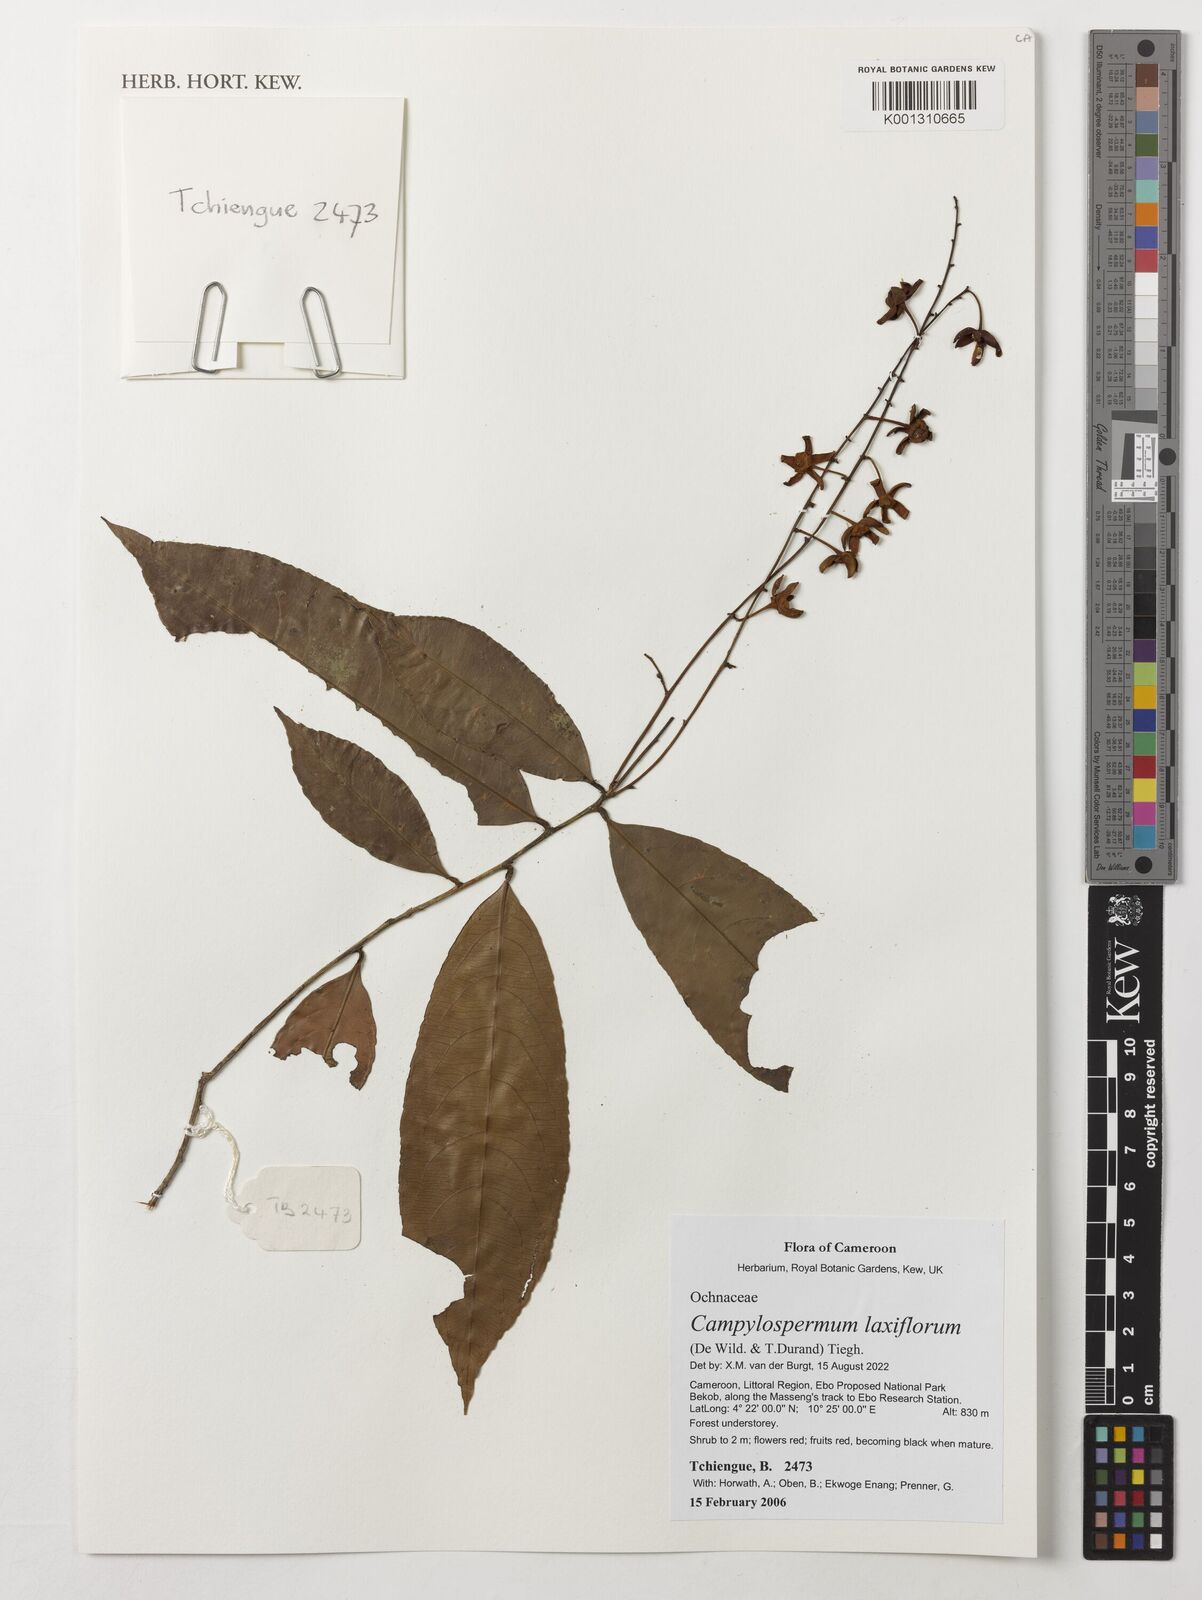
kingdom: Plantae
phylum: Tracheophyta
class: Magnoliopsida
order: Malpighiales
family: Ochnaceae
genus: Campylospermum
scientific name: Campylospermum laxiflorum
